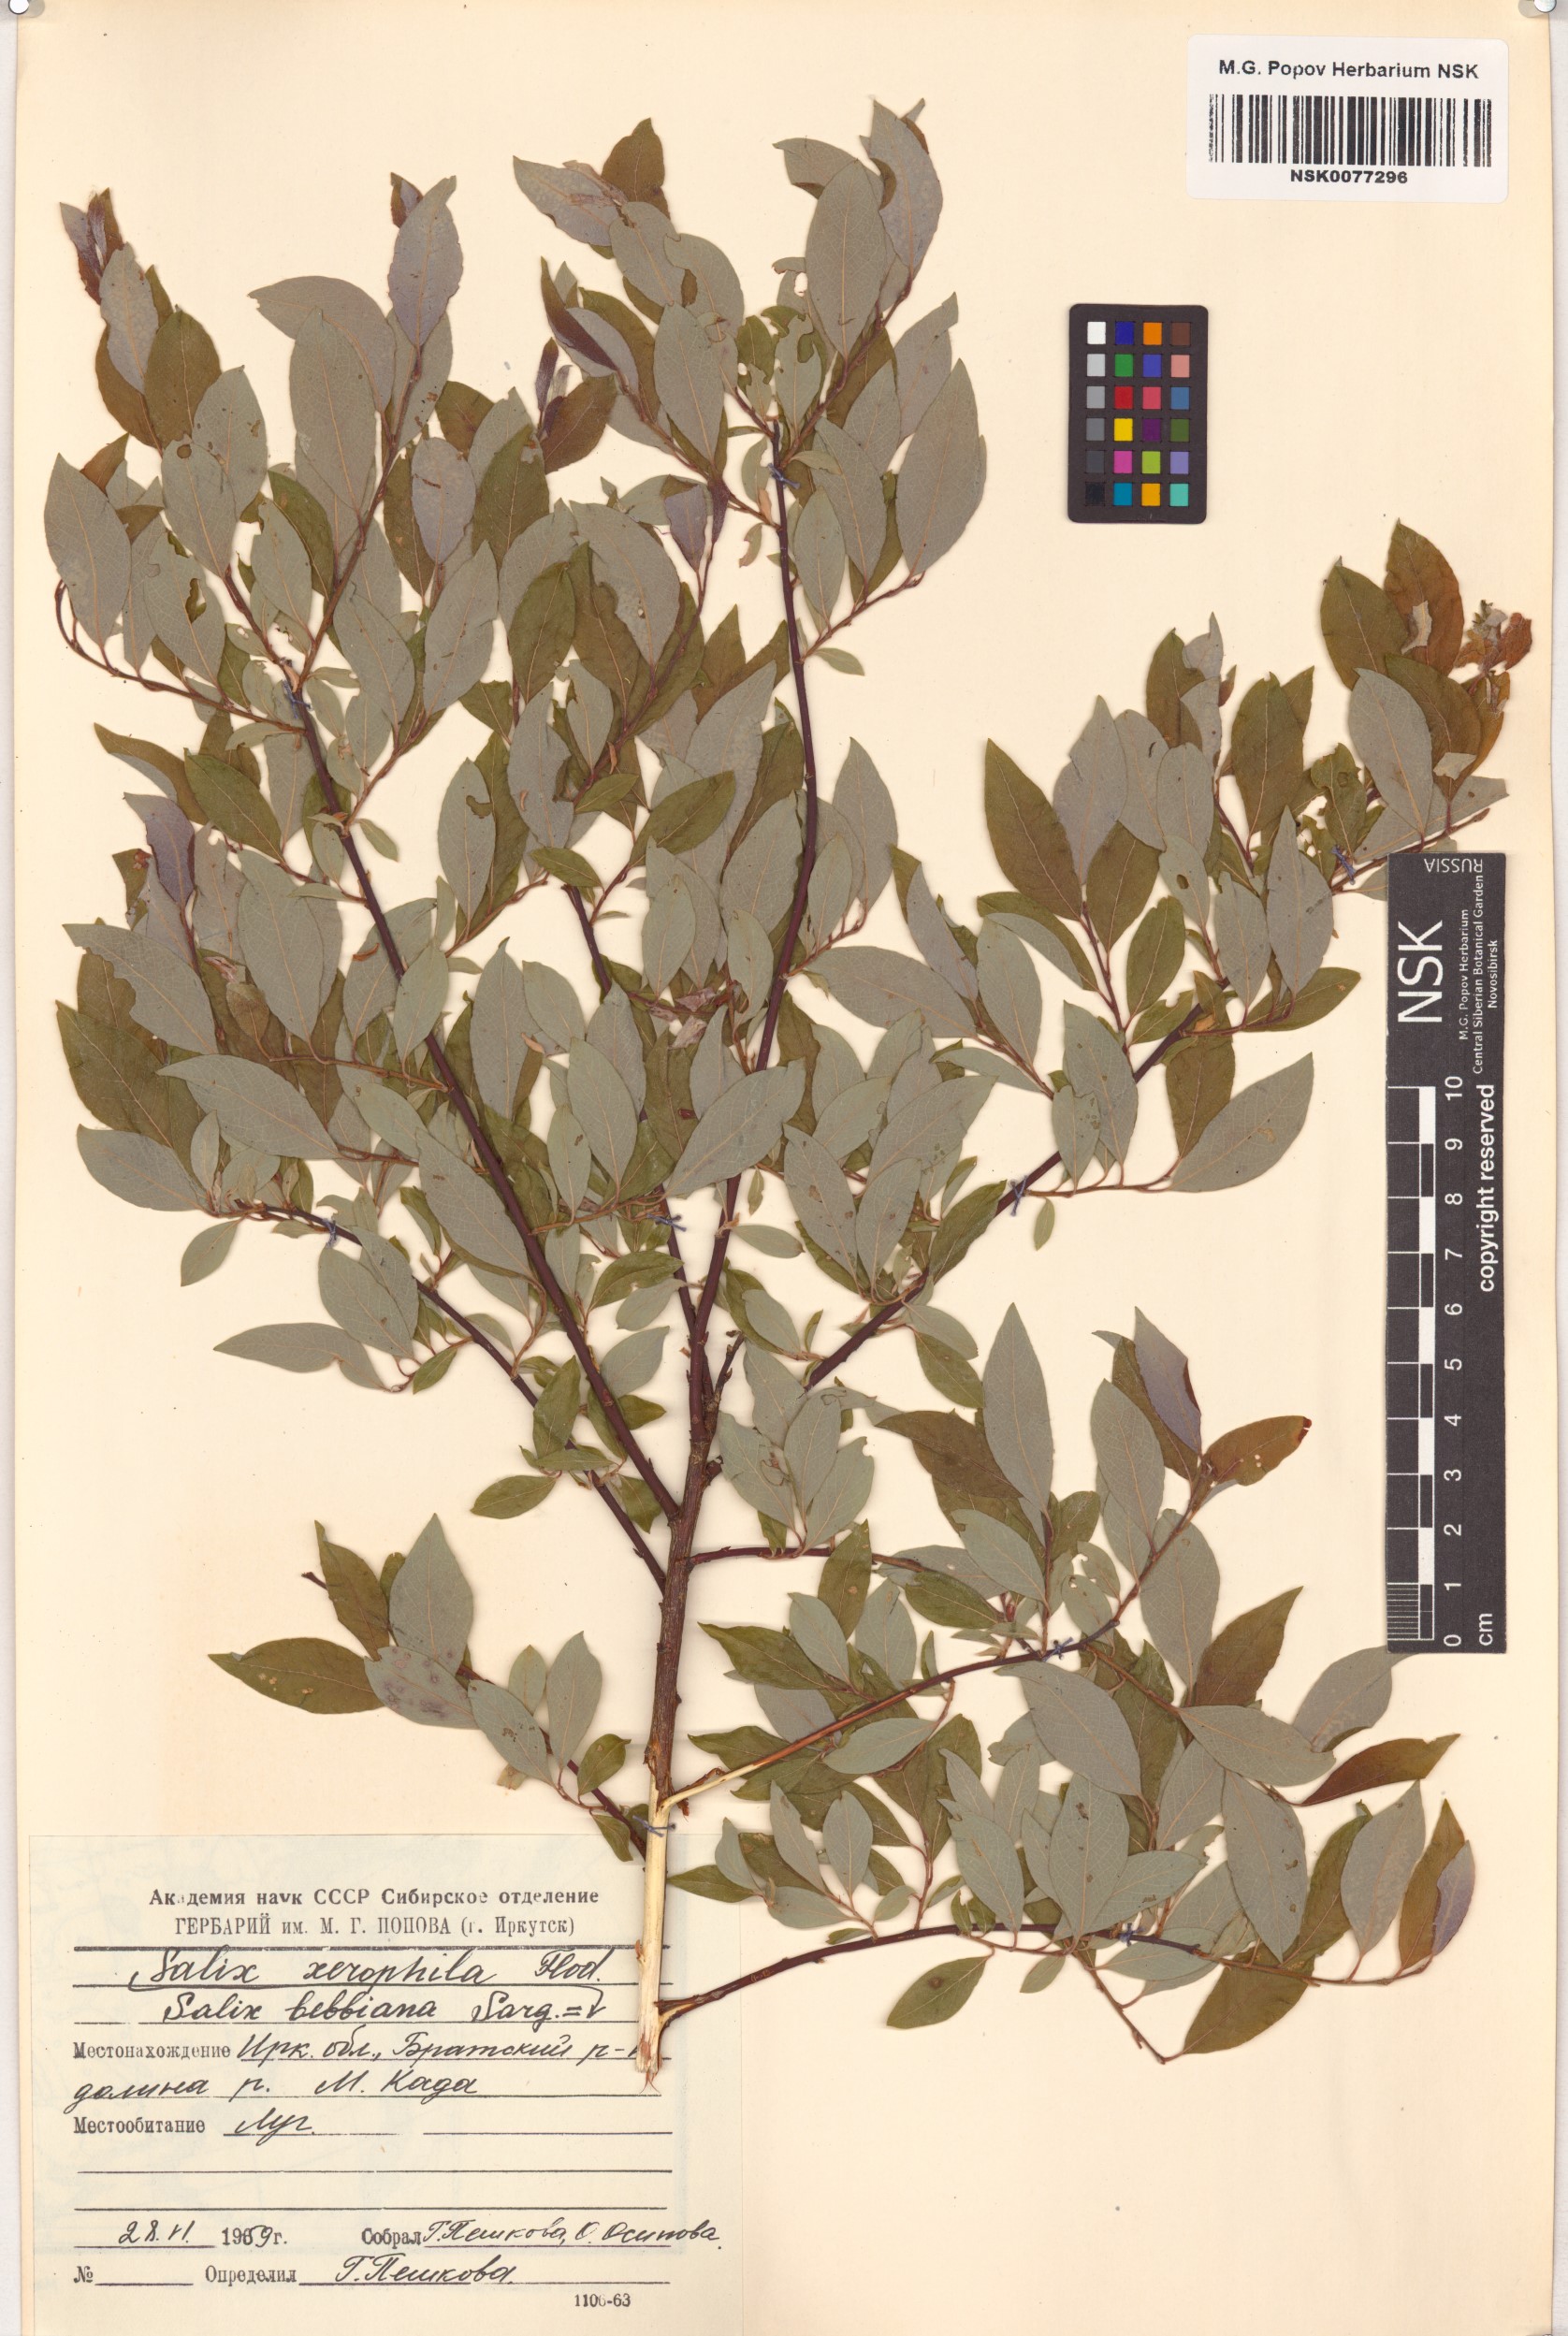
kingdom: Plantae
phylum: Tracheophyta
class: Magnoliopsida
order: Malpighiales
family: Salicaceae
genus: Salix
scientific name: Salix bebbiana
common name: Bebb's willow
